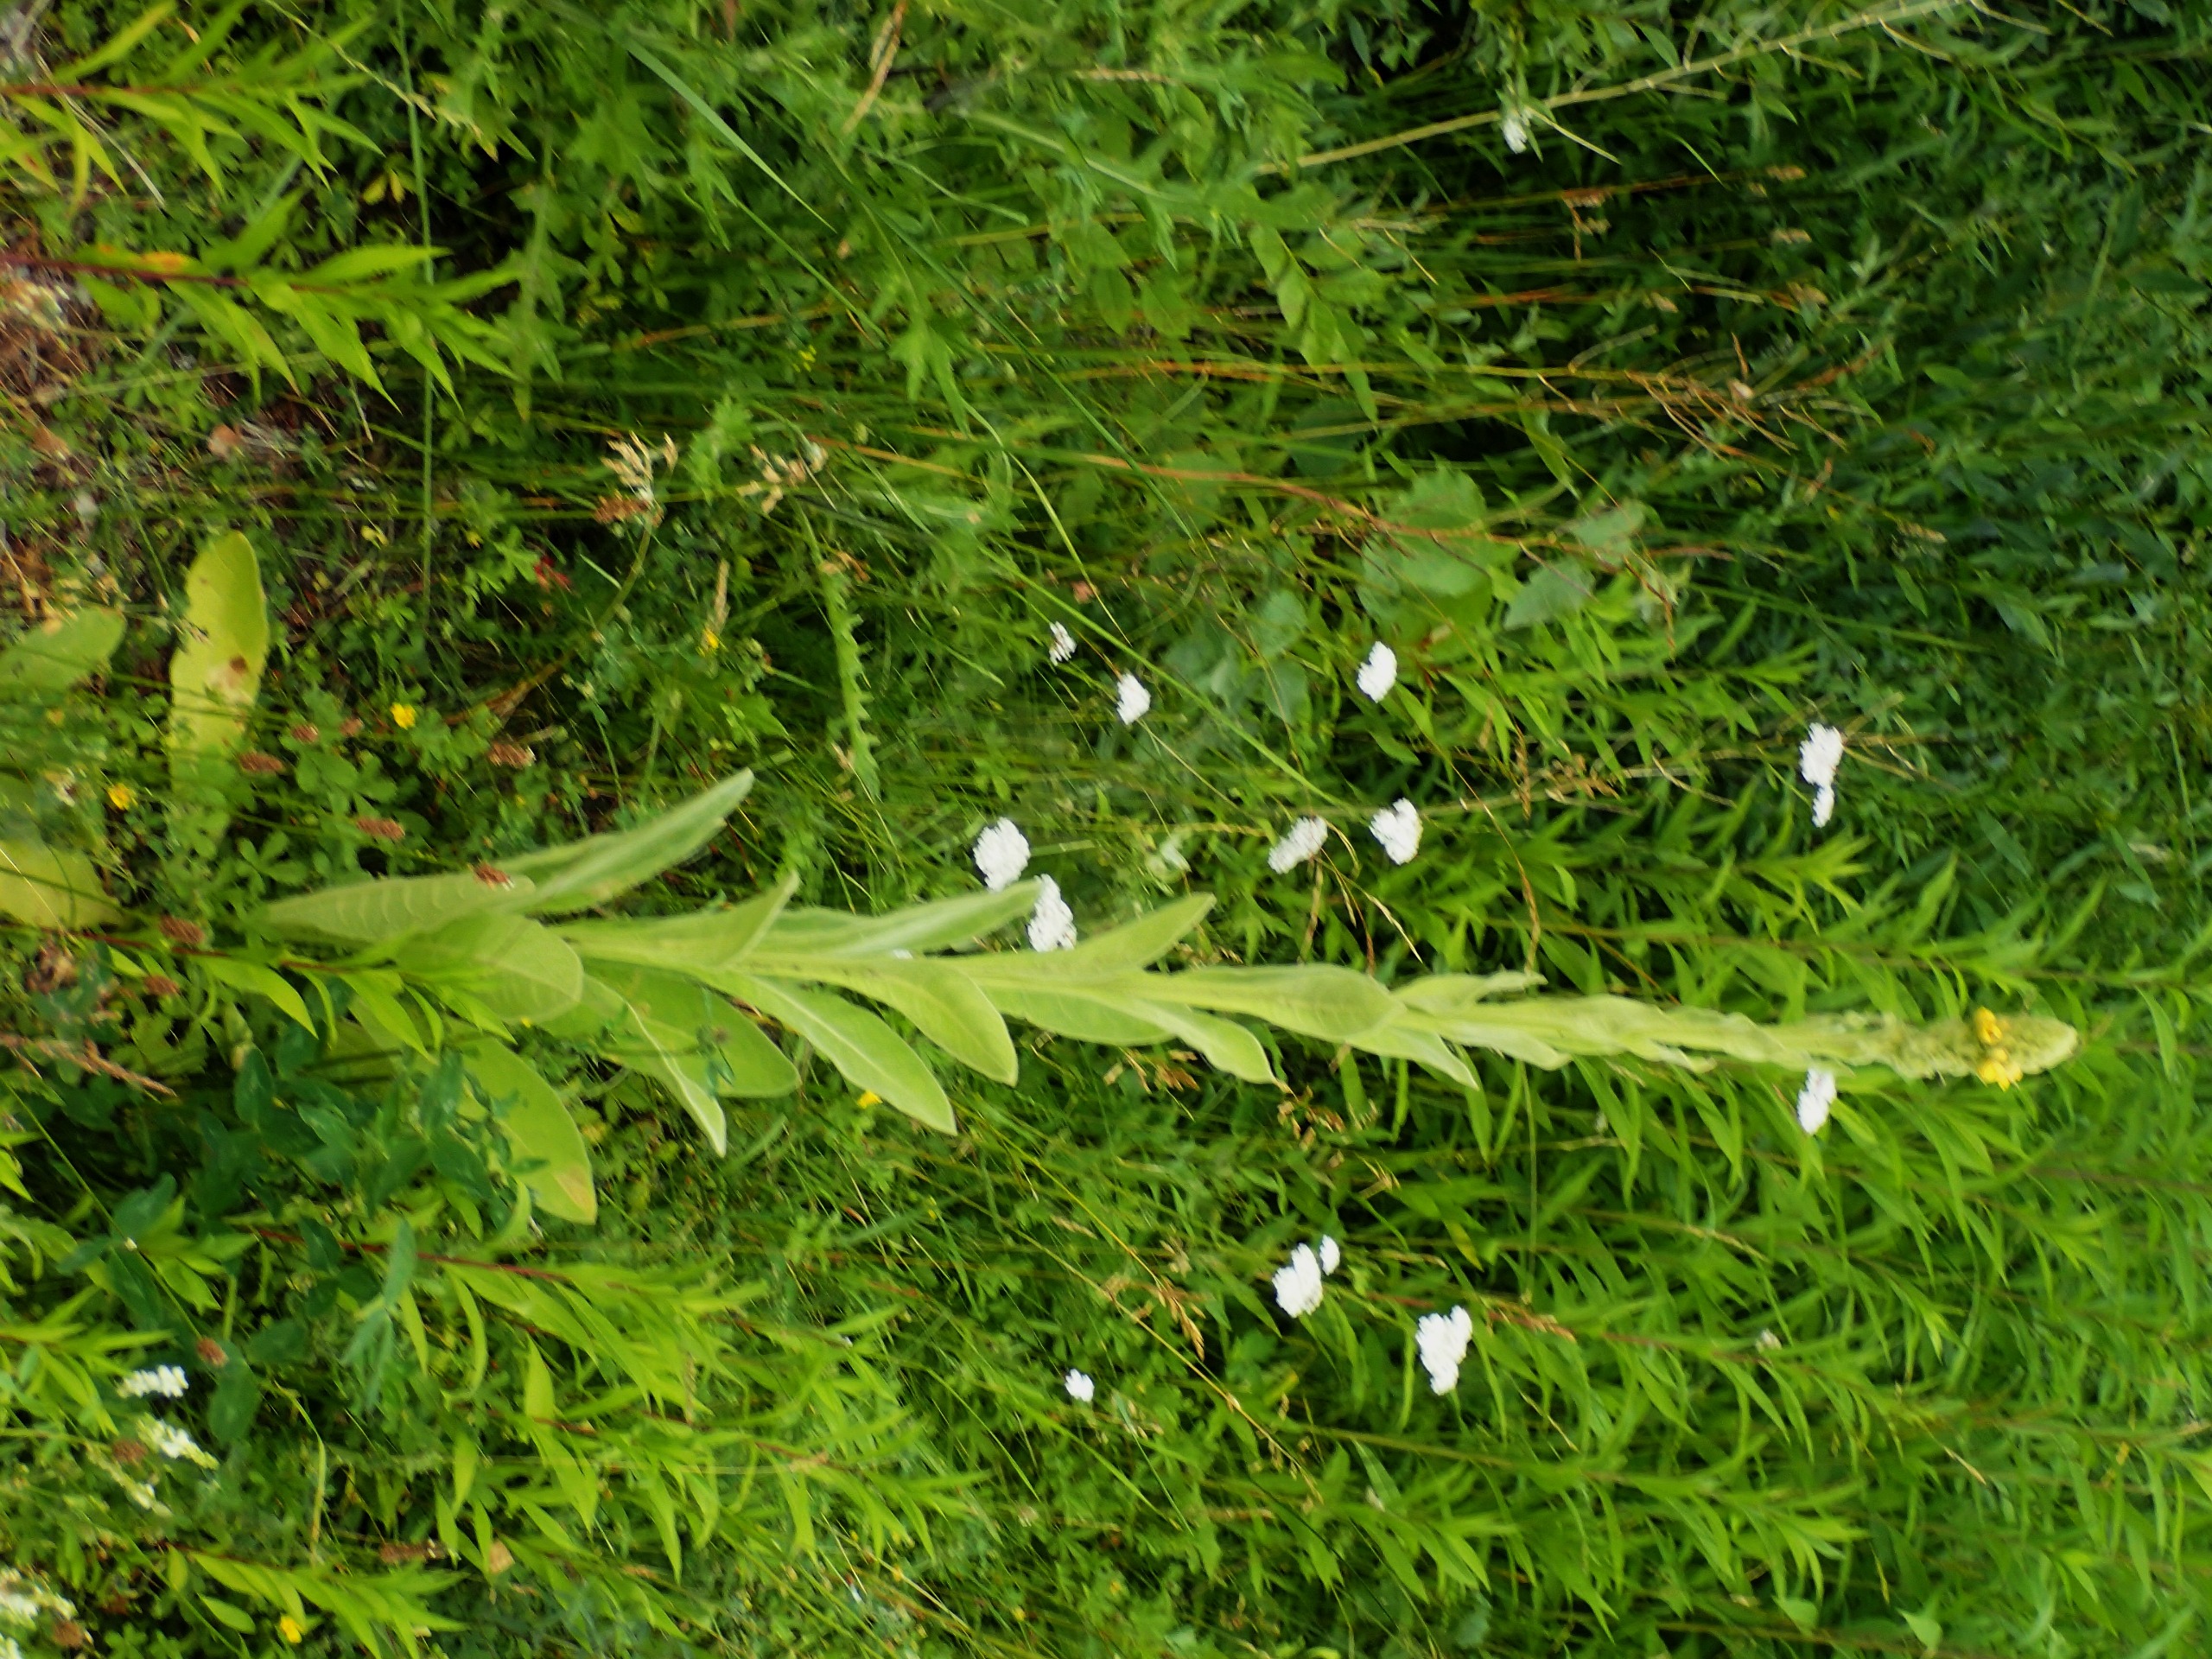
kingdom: Plantae
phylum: Tracheophyta
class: Magnoliopsida
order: Lamiales
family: Scrophulariaceae
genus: Verbascum
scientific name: Verbascum thapsus
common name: Filtbladet kongelys
